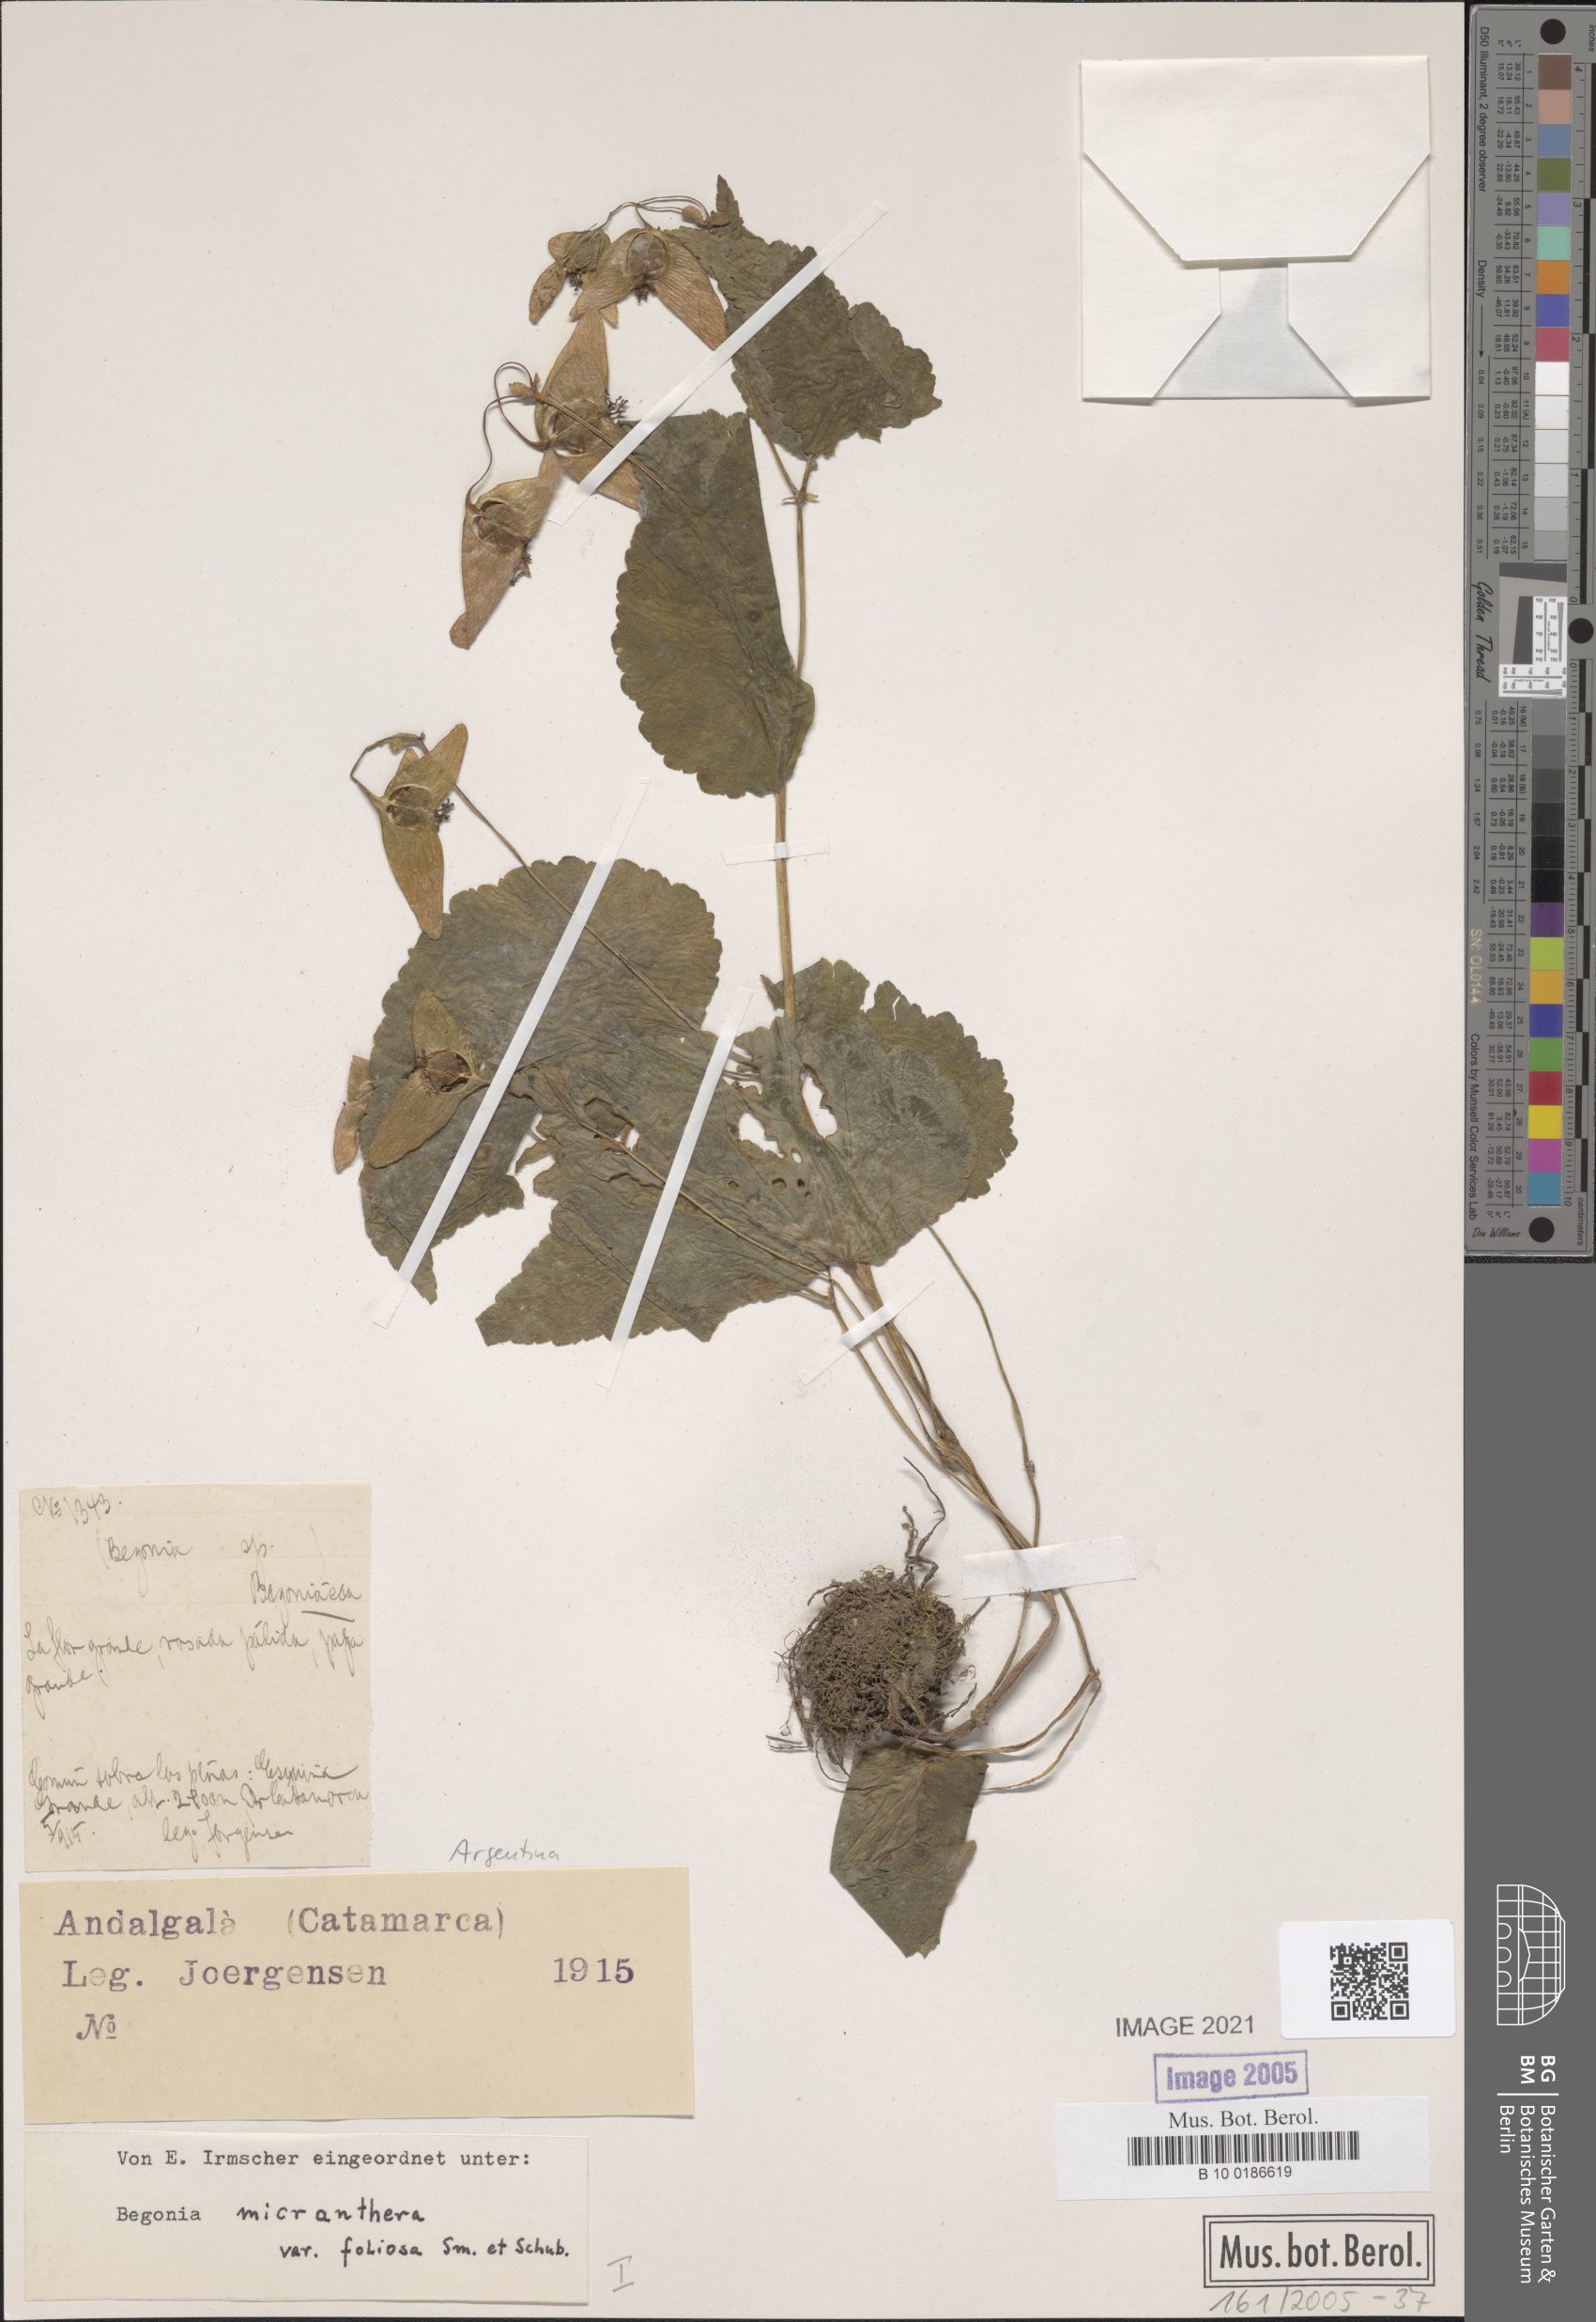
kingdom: Plantae
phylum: Tracheophyta
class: Magnoliopsida
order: Cucurbitales
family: Begoniaceae
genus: Begonia
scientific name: Begonia micranthera
